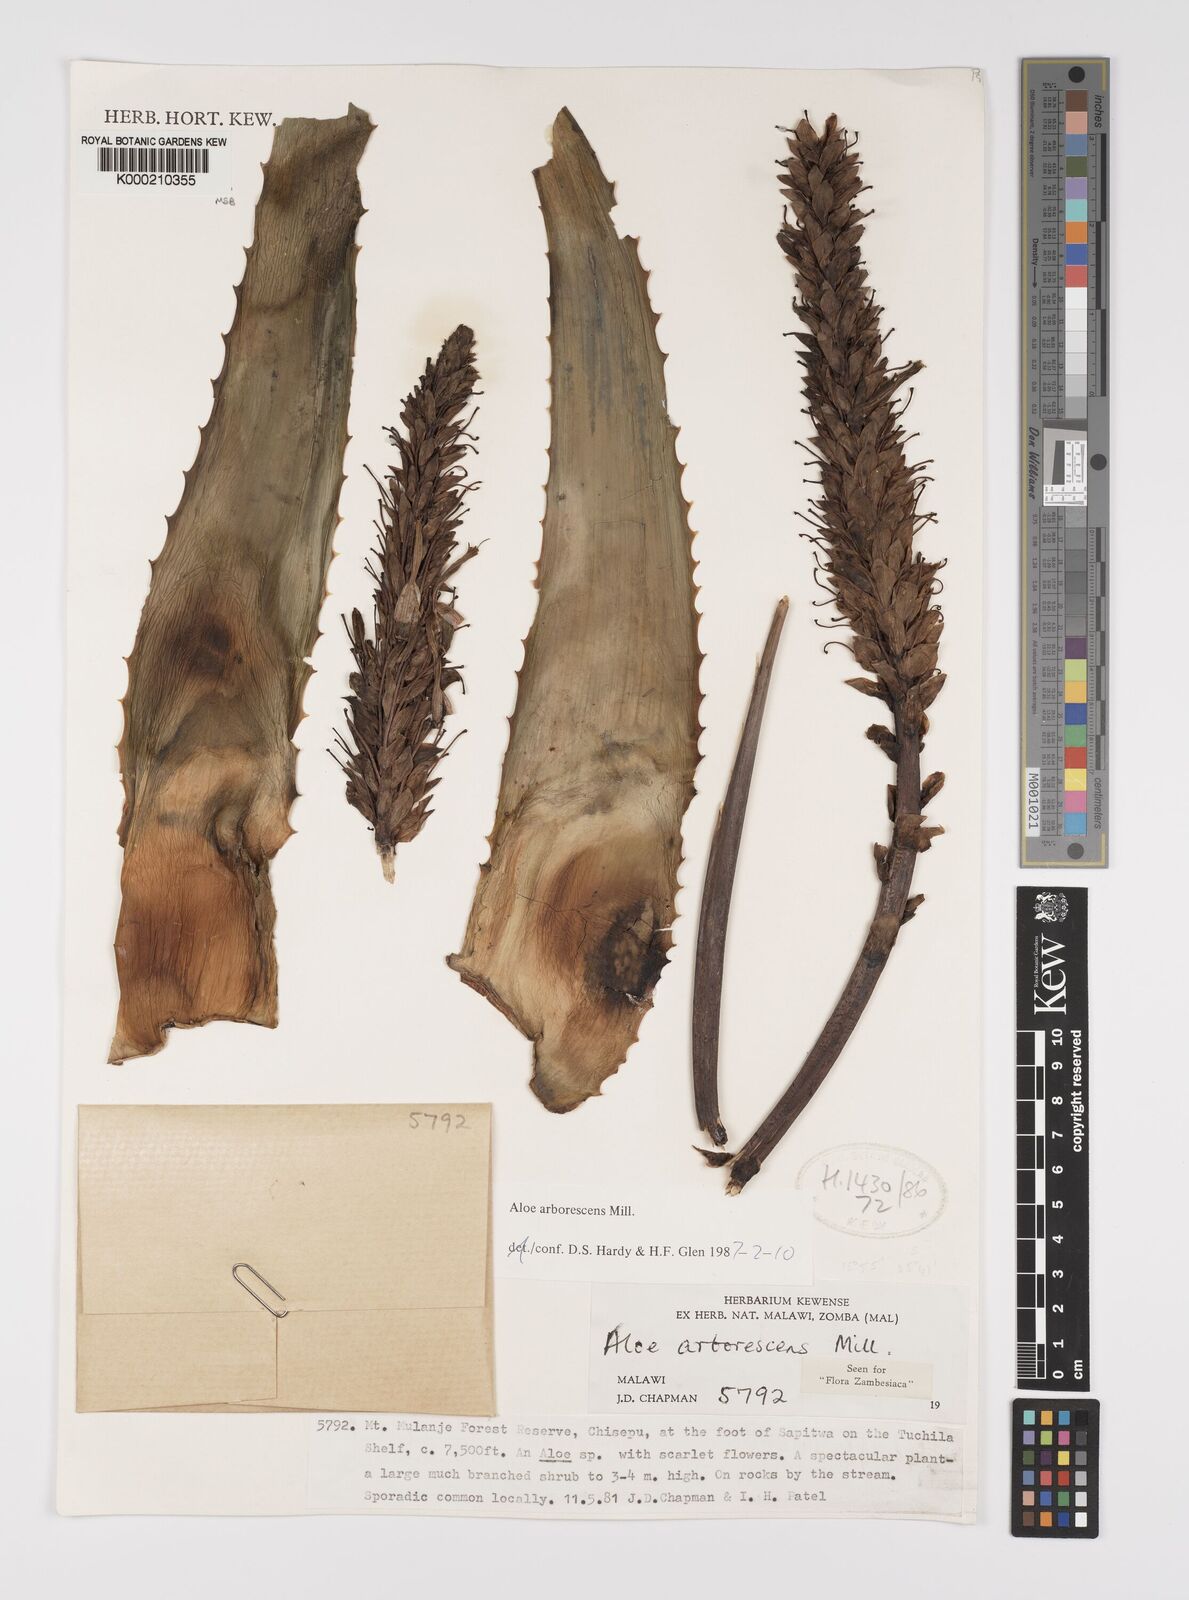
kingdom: Plantae
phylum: Tracheophyta
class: Liliopsida
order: Asparagales
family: Asphodelaceae
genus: Aloe
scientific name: Aloe arborescens
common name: Candelabra aloe
